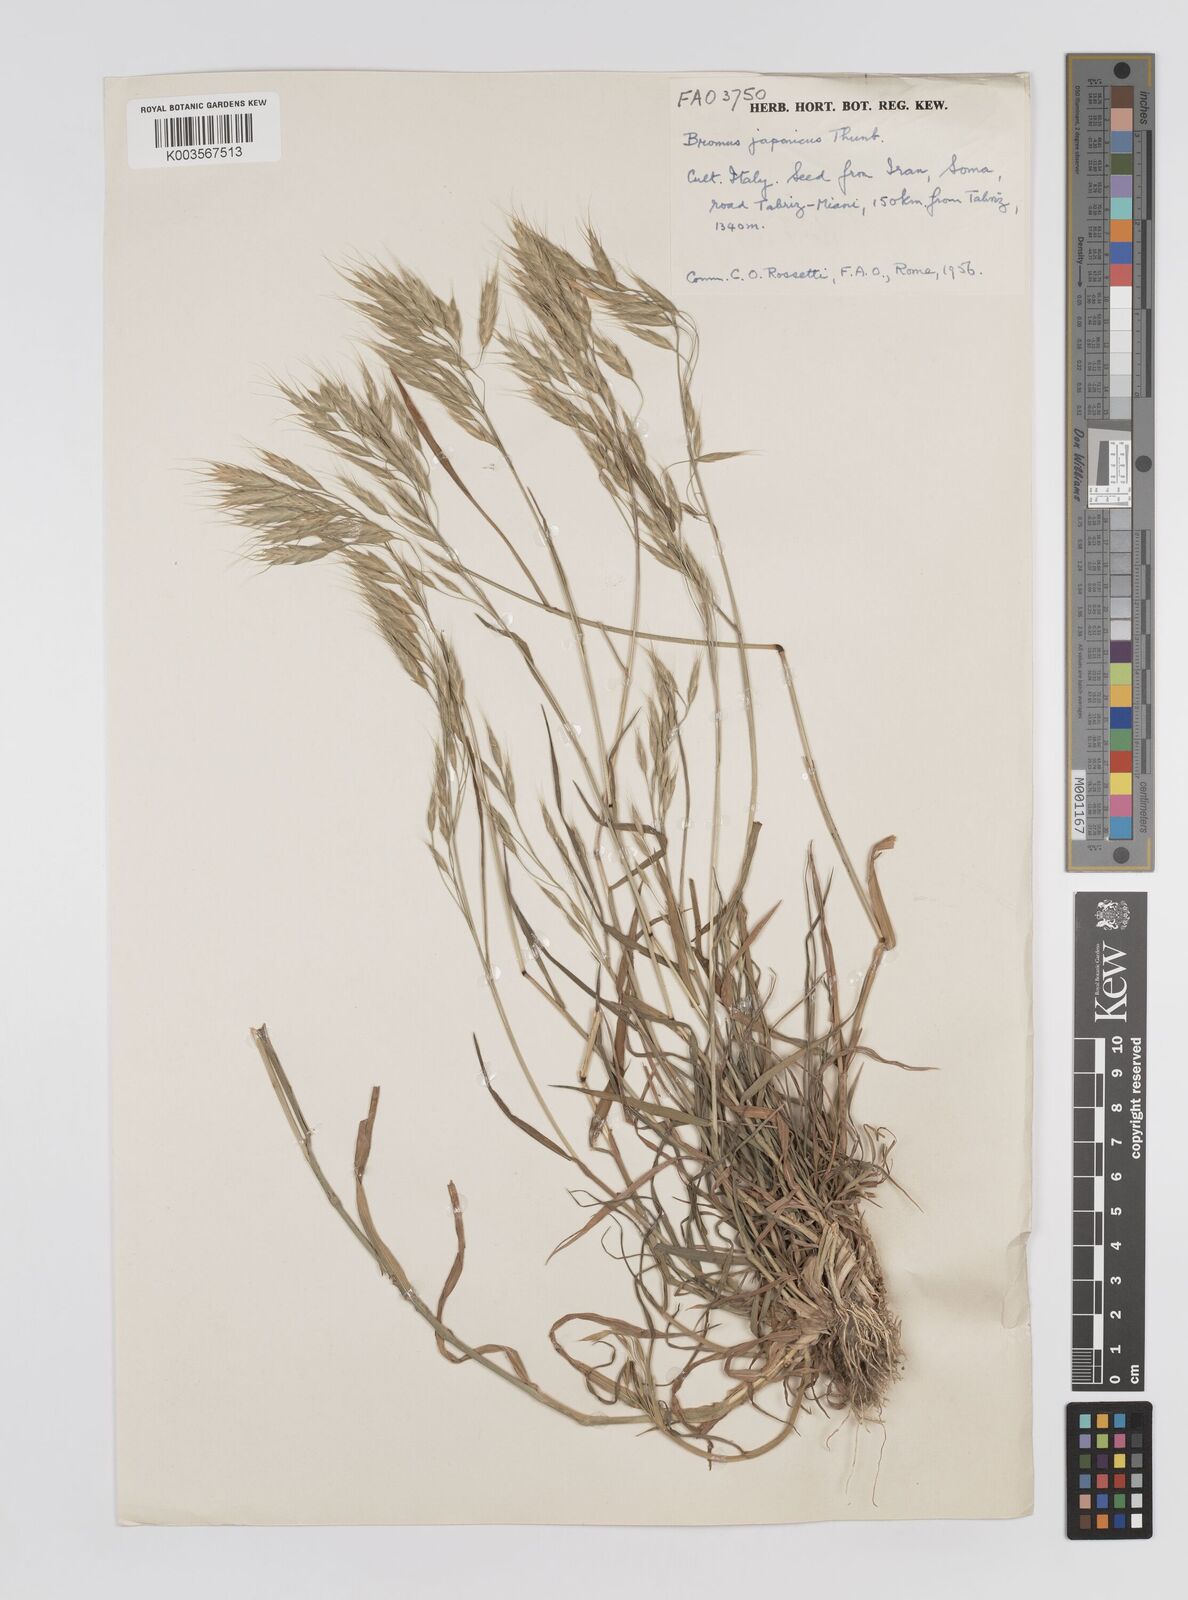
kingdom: Plantae
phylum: Tracheophyta
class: Liliopsida
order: Poales
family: Poaceae
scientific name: Poaceae
